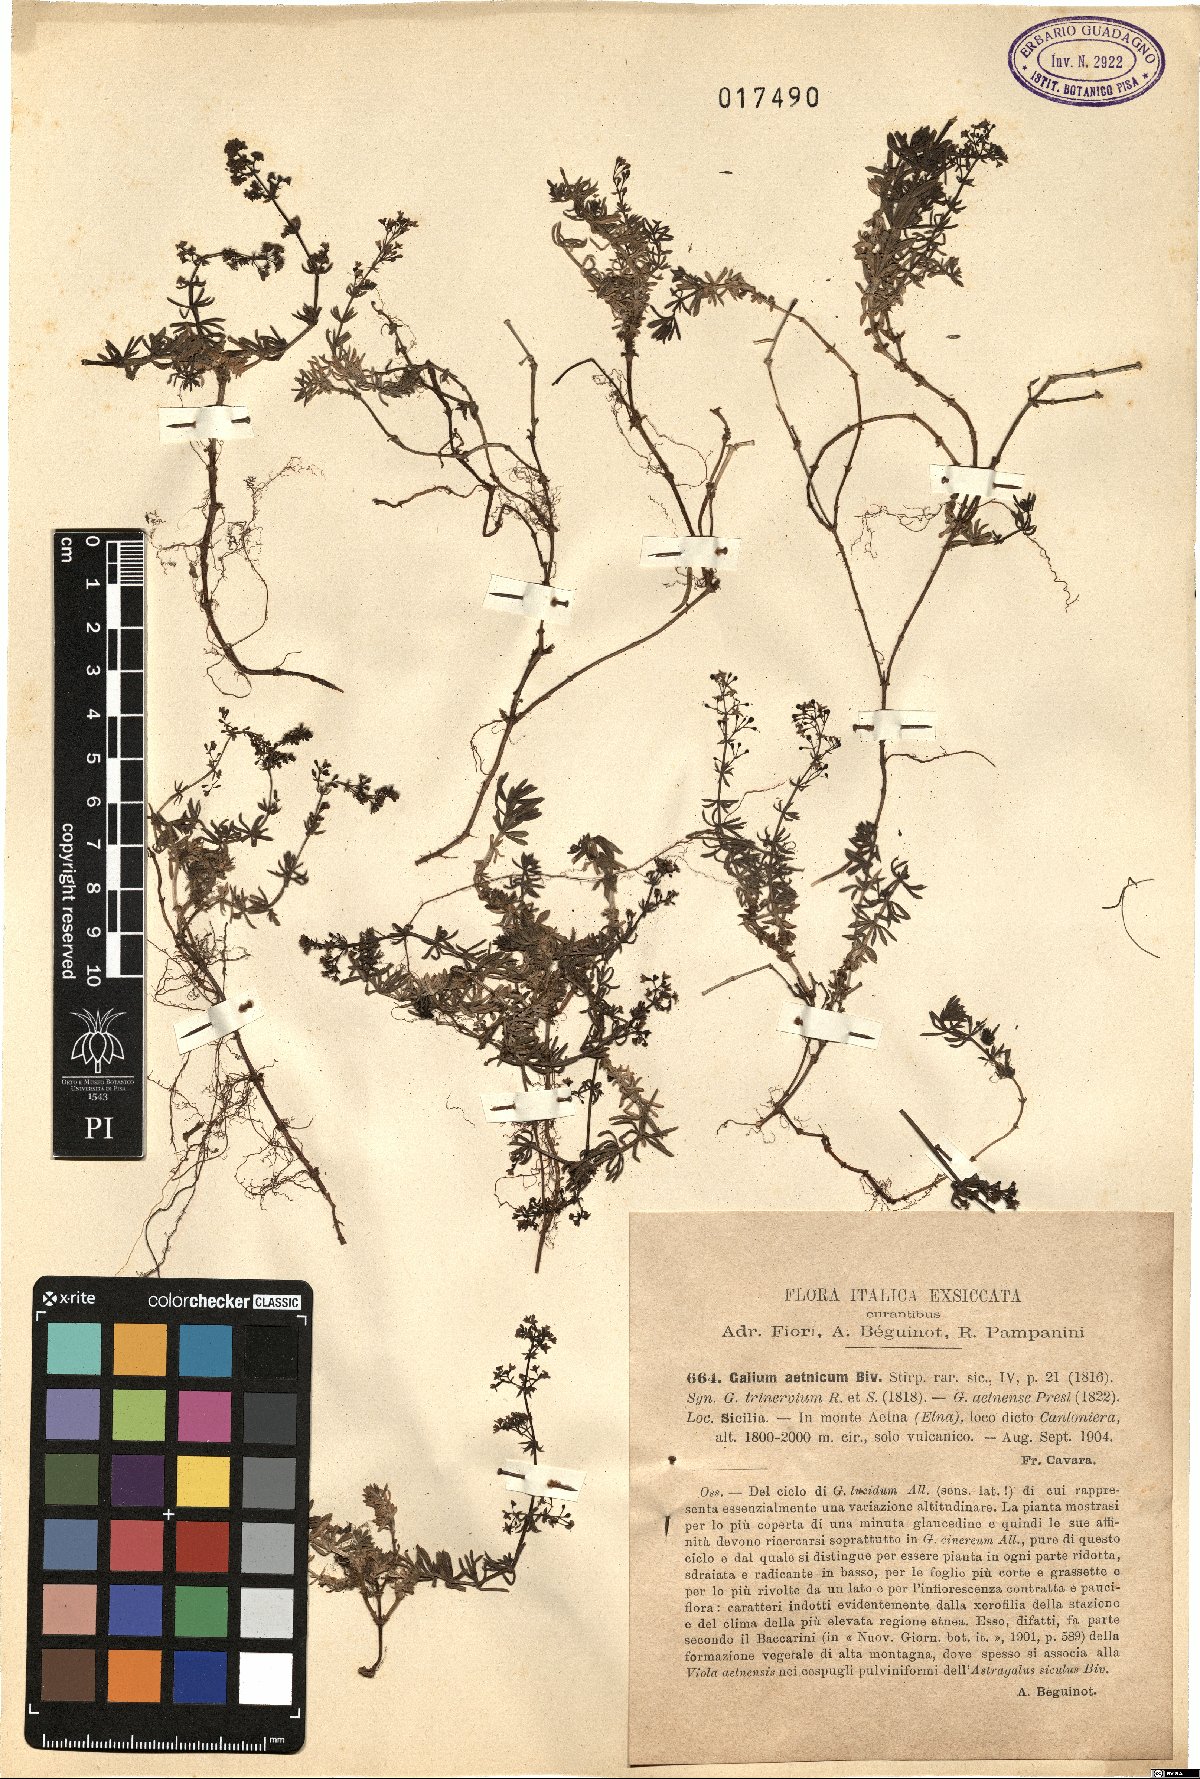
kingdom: Plantae
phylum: Tracheophyta
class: Magnoliopsida
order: Gentianales
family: Rubiaceae
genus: Galium
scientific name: Galium aetnicum
